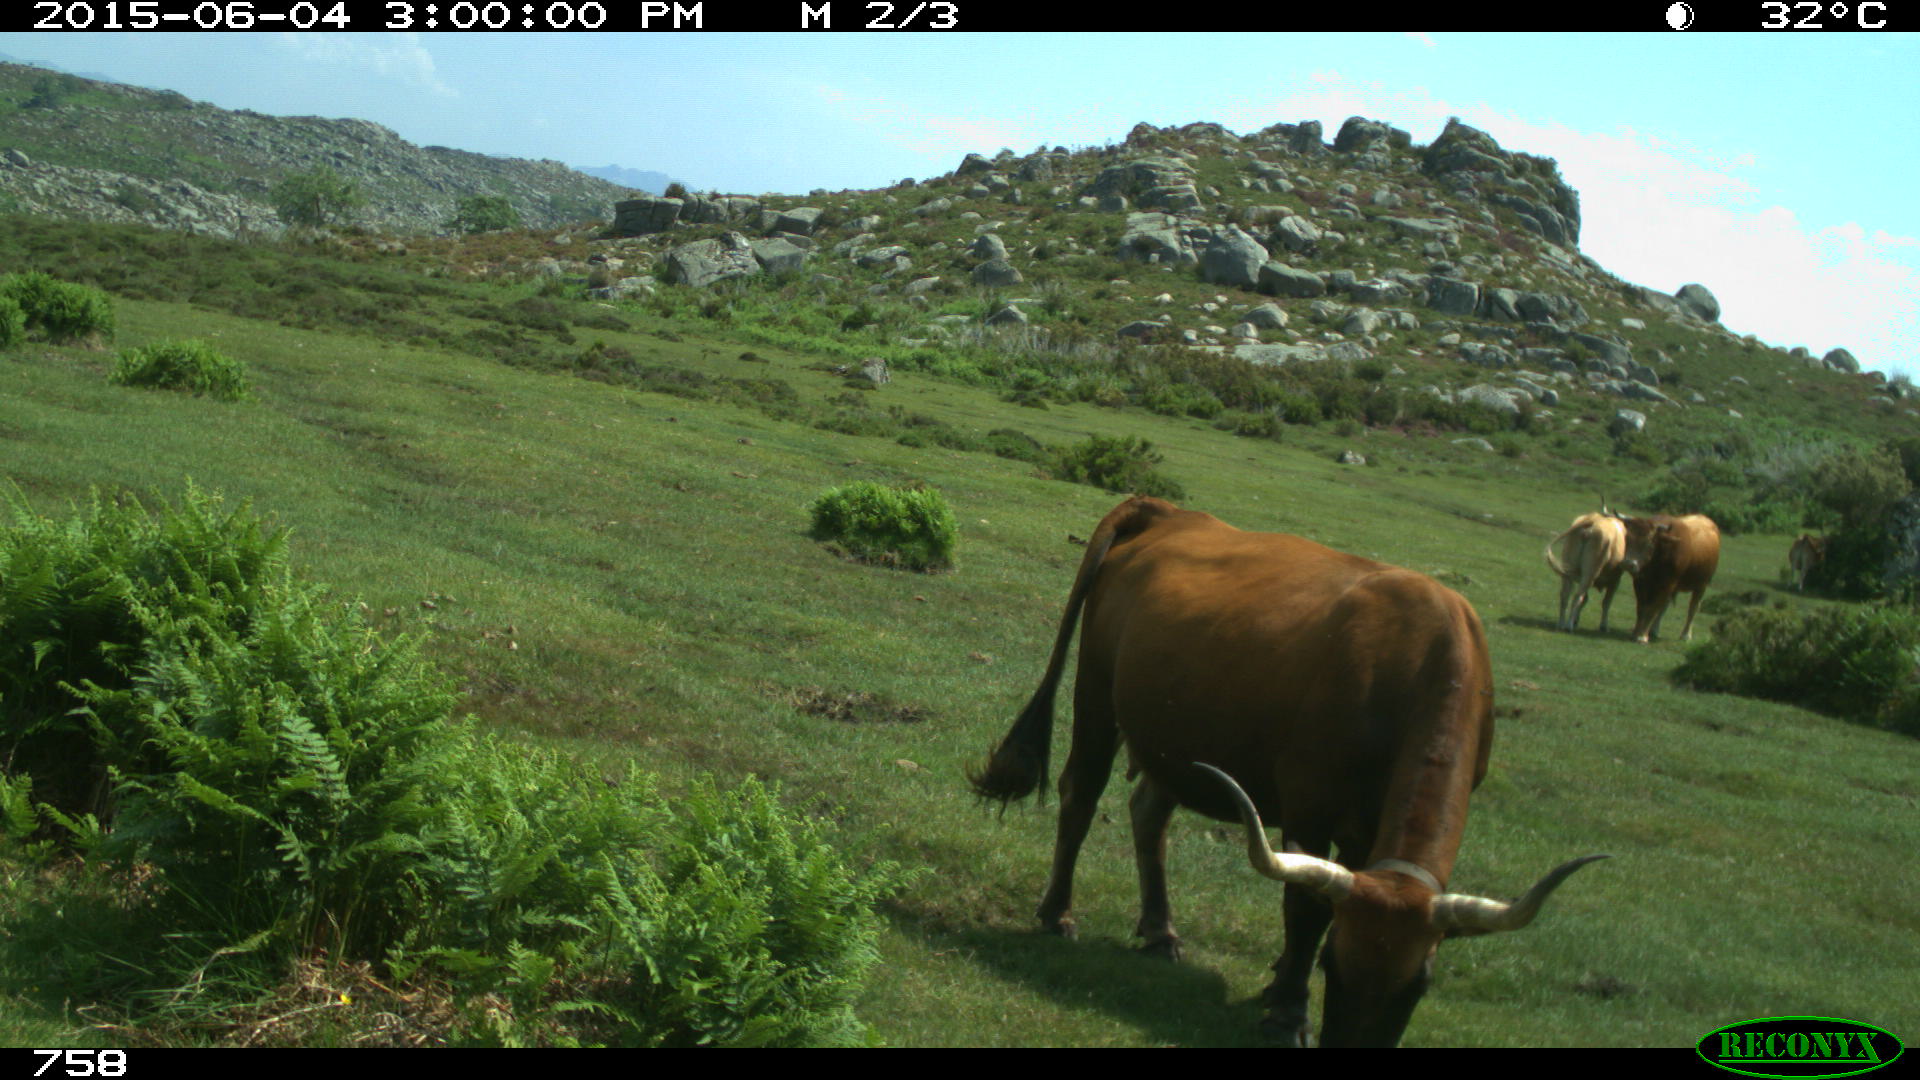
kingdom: Animalia
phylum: Chordata
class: Mammalia
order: Perissodactyla
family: Equidae
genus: Equus
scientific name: Equus caballus
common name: Horse
